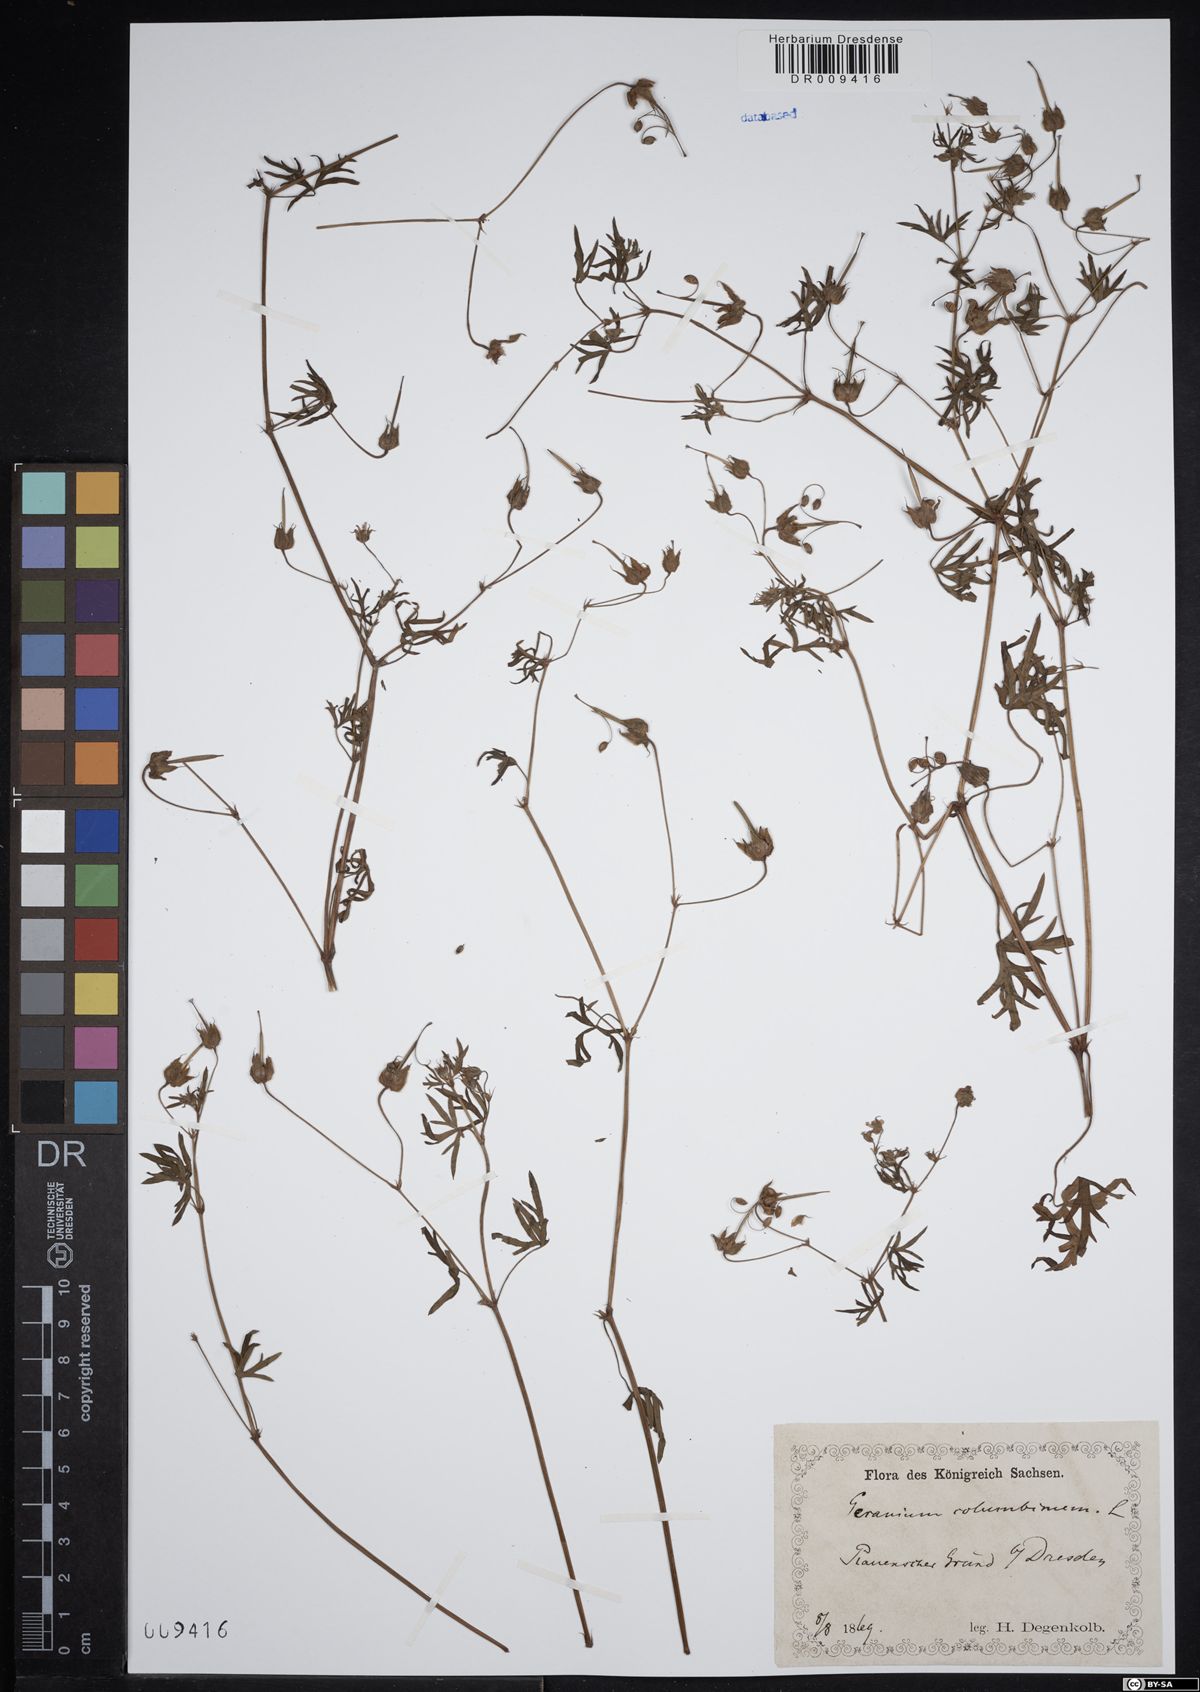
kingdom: Plantae
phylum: Tracheophyta
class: Magnoliopsida
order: Geraniales
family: Geraniaceae
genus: Geranium
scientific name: Geranium columbinum
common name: Long-stalked crane's-bill
